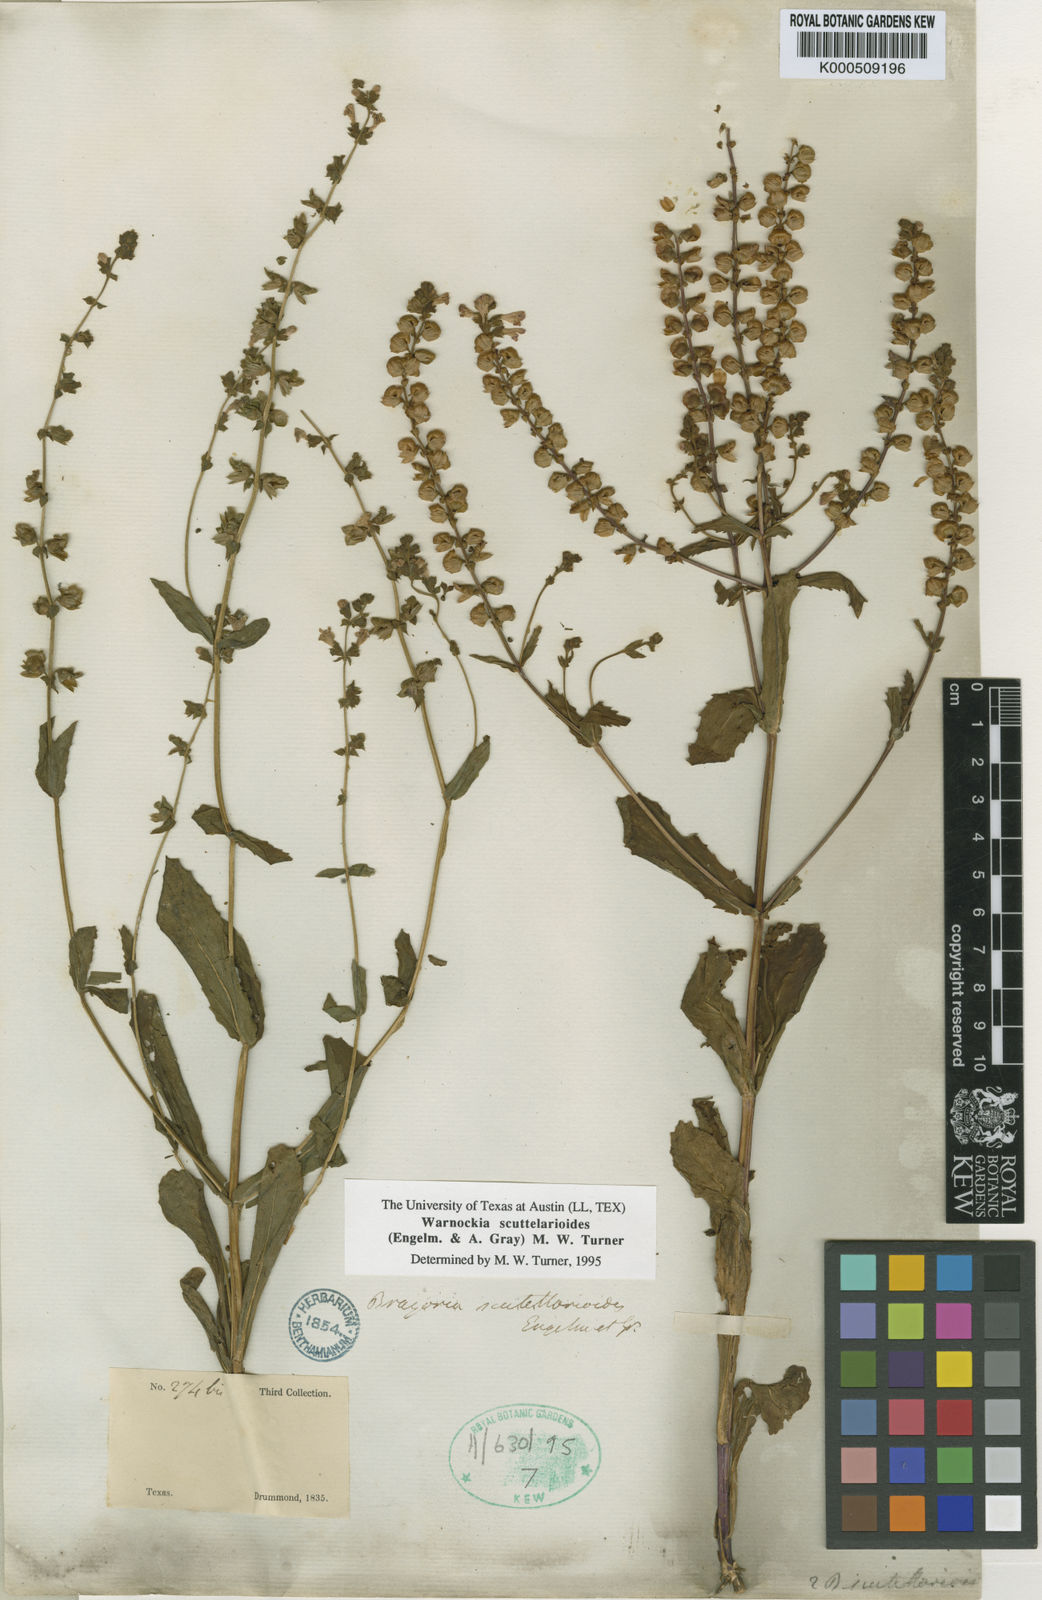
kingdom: Plantae
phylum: Tracheophyta
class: Magnoliopsida
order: Lamiales
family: Lamiaceae
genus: Warnockia
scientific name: Warnockia scutellarioides
